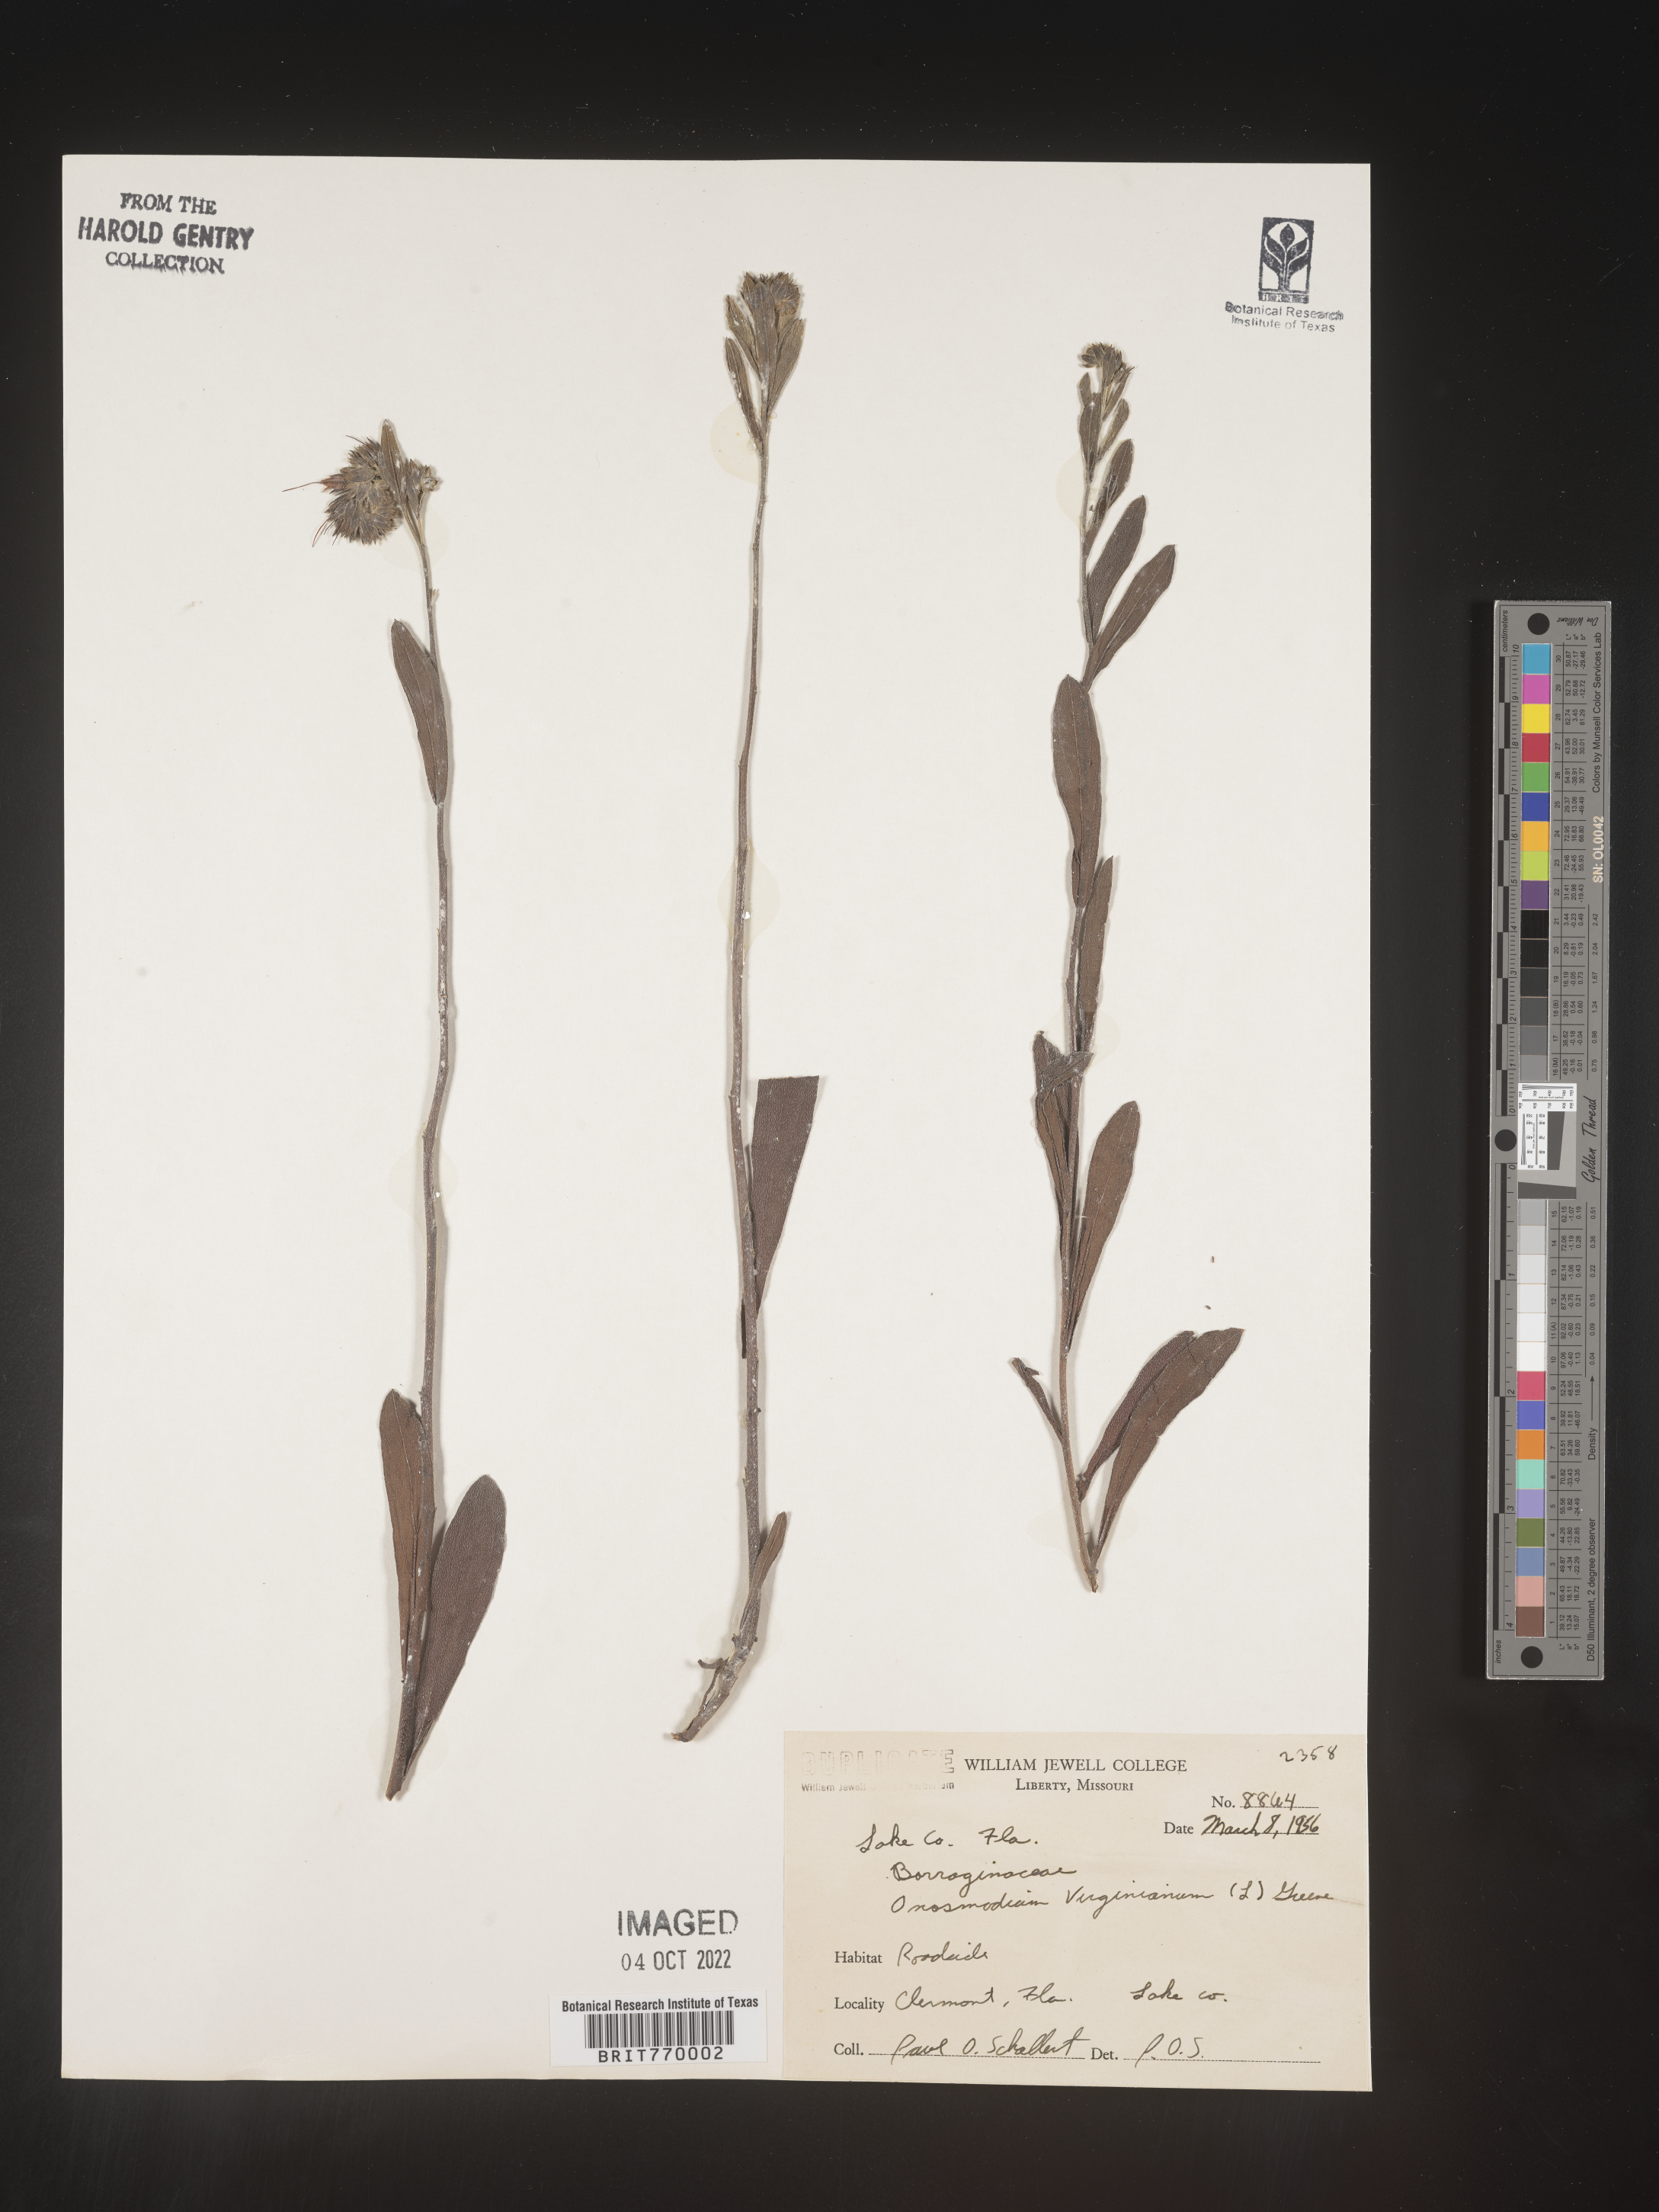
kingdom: Plantae
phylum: Tracheophyta
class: Magnoliopsida
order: Boraginales
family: Boraginaceae
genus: Lithospermum
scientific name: Lithospermum virginianum
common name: Eastern false gromwell
